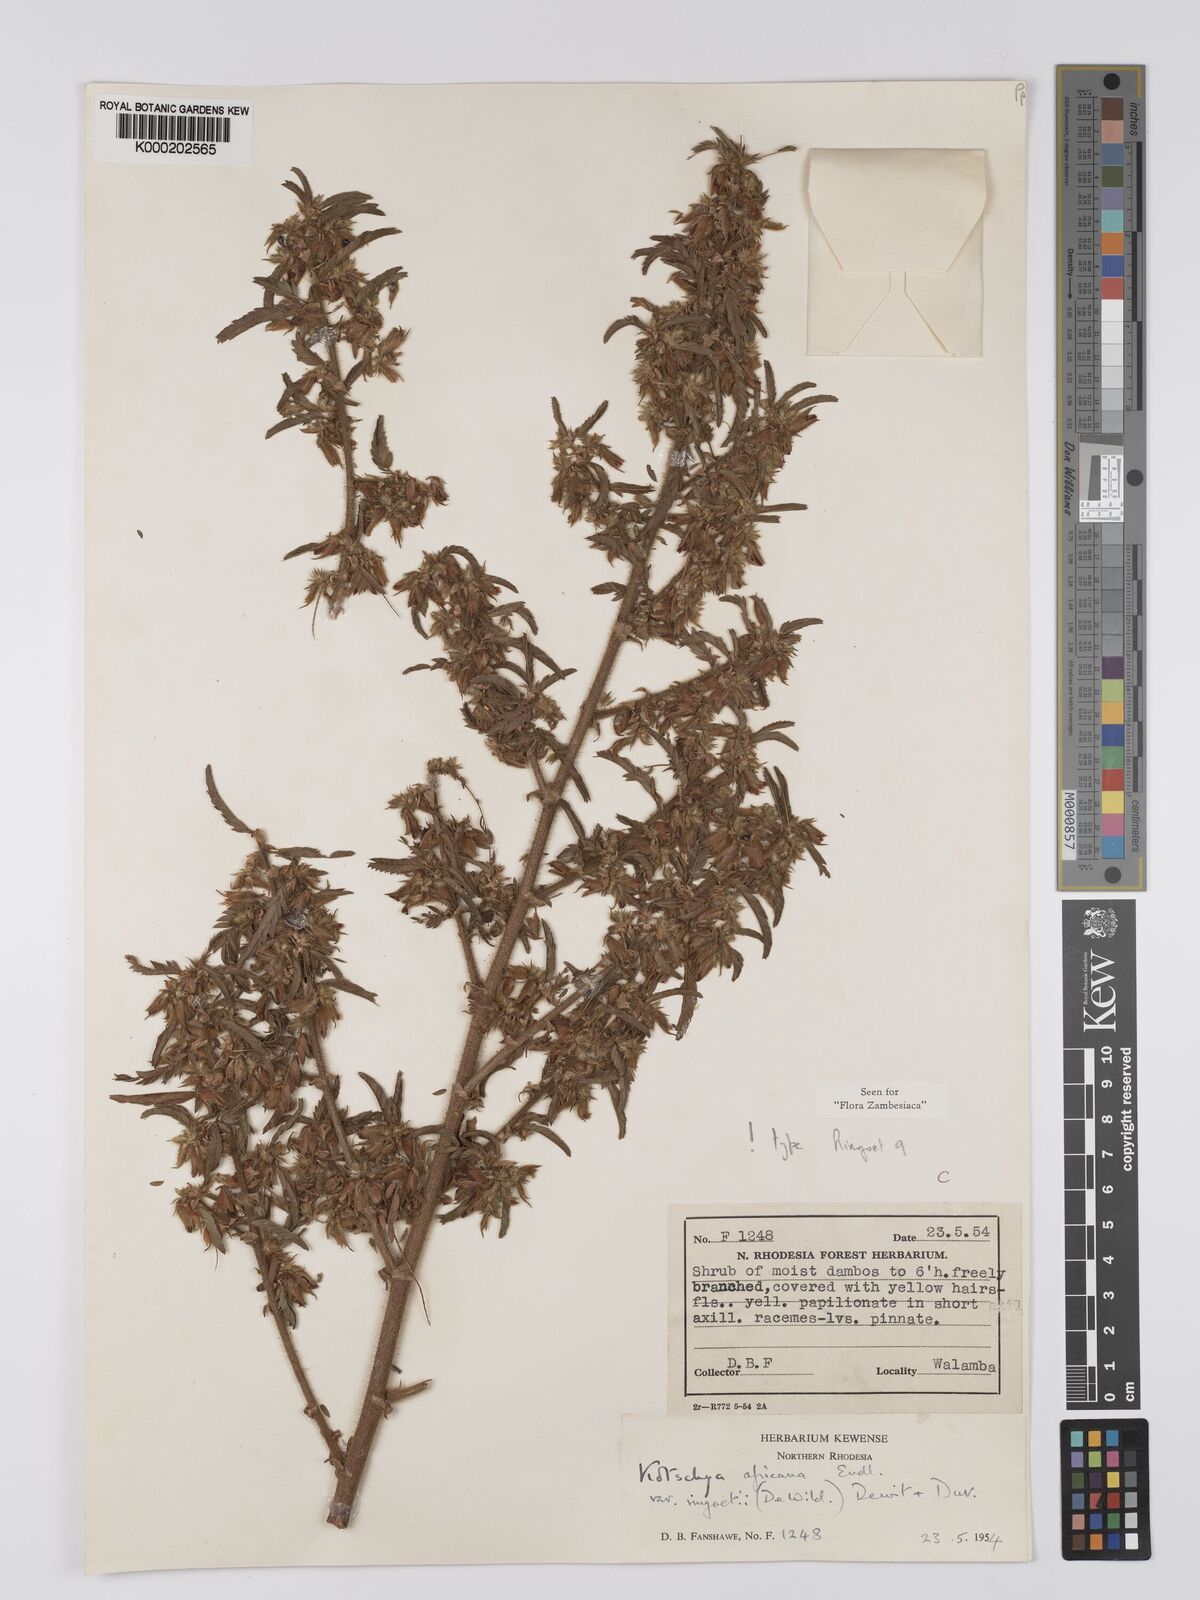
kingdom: Plantae
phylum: Tracheophyta
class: Magnoliopsida
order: Fabales
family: Fabaceae
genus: Kotschya
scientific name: Kotschya africana
